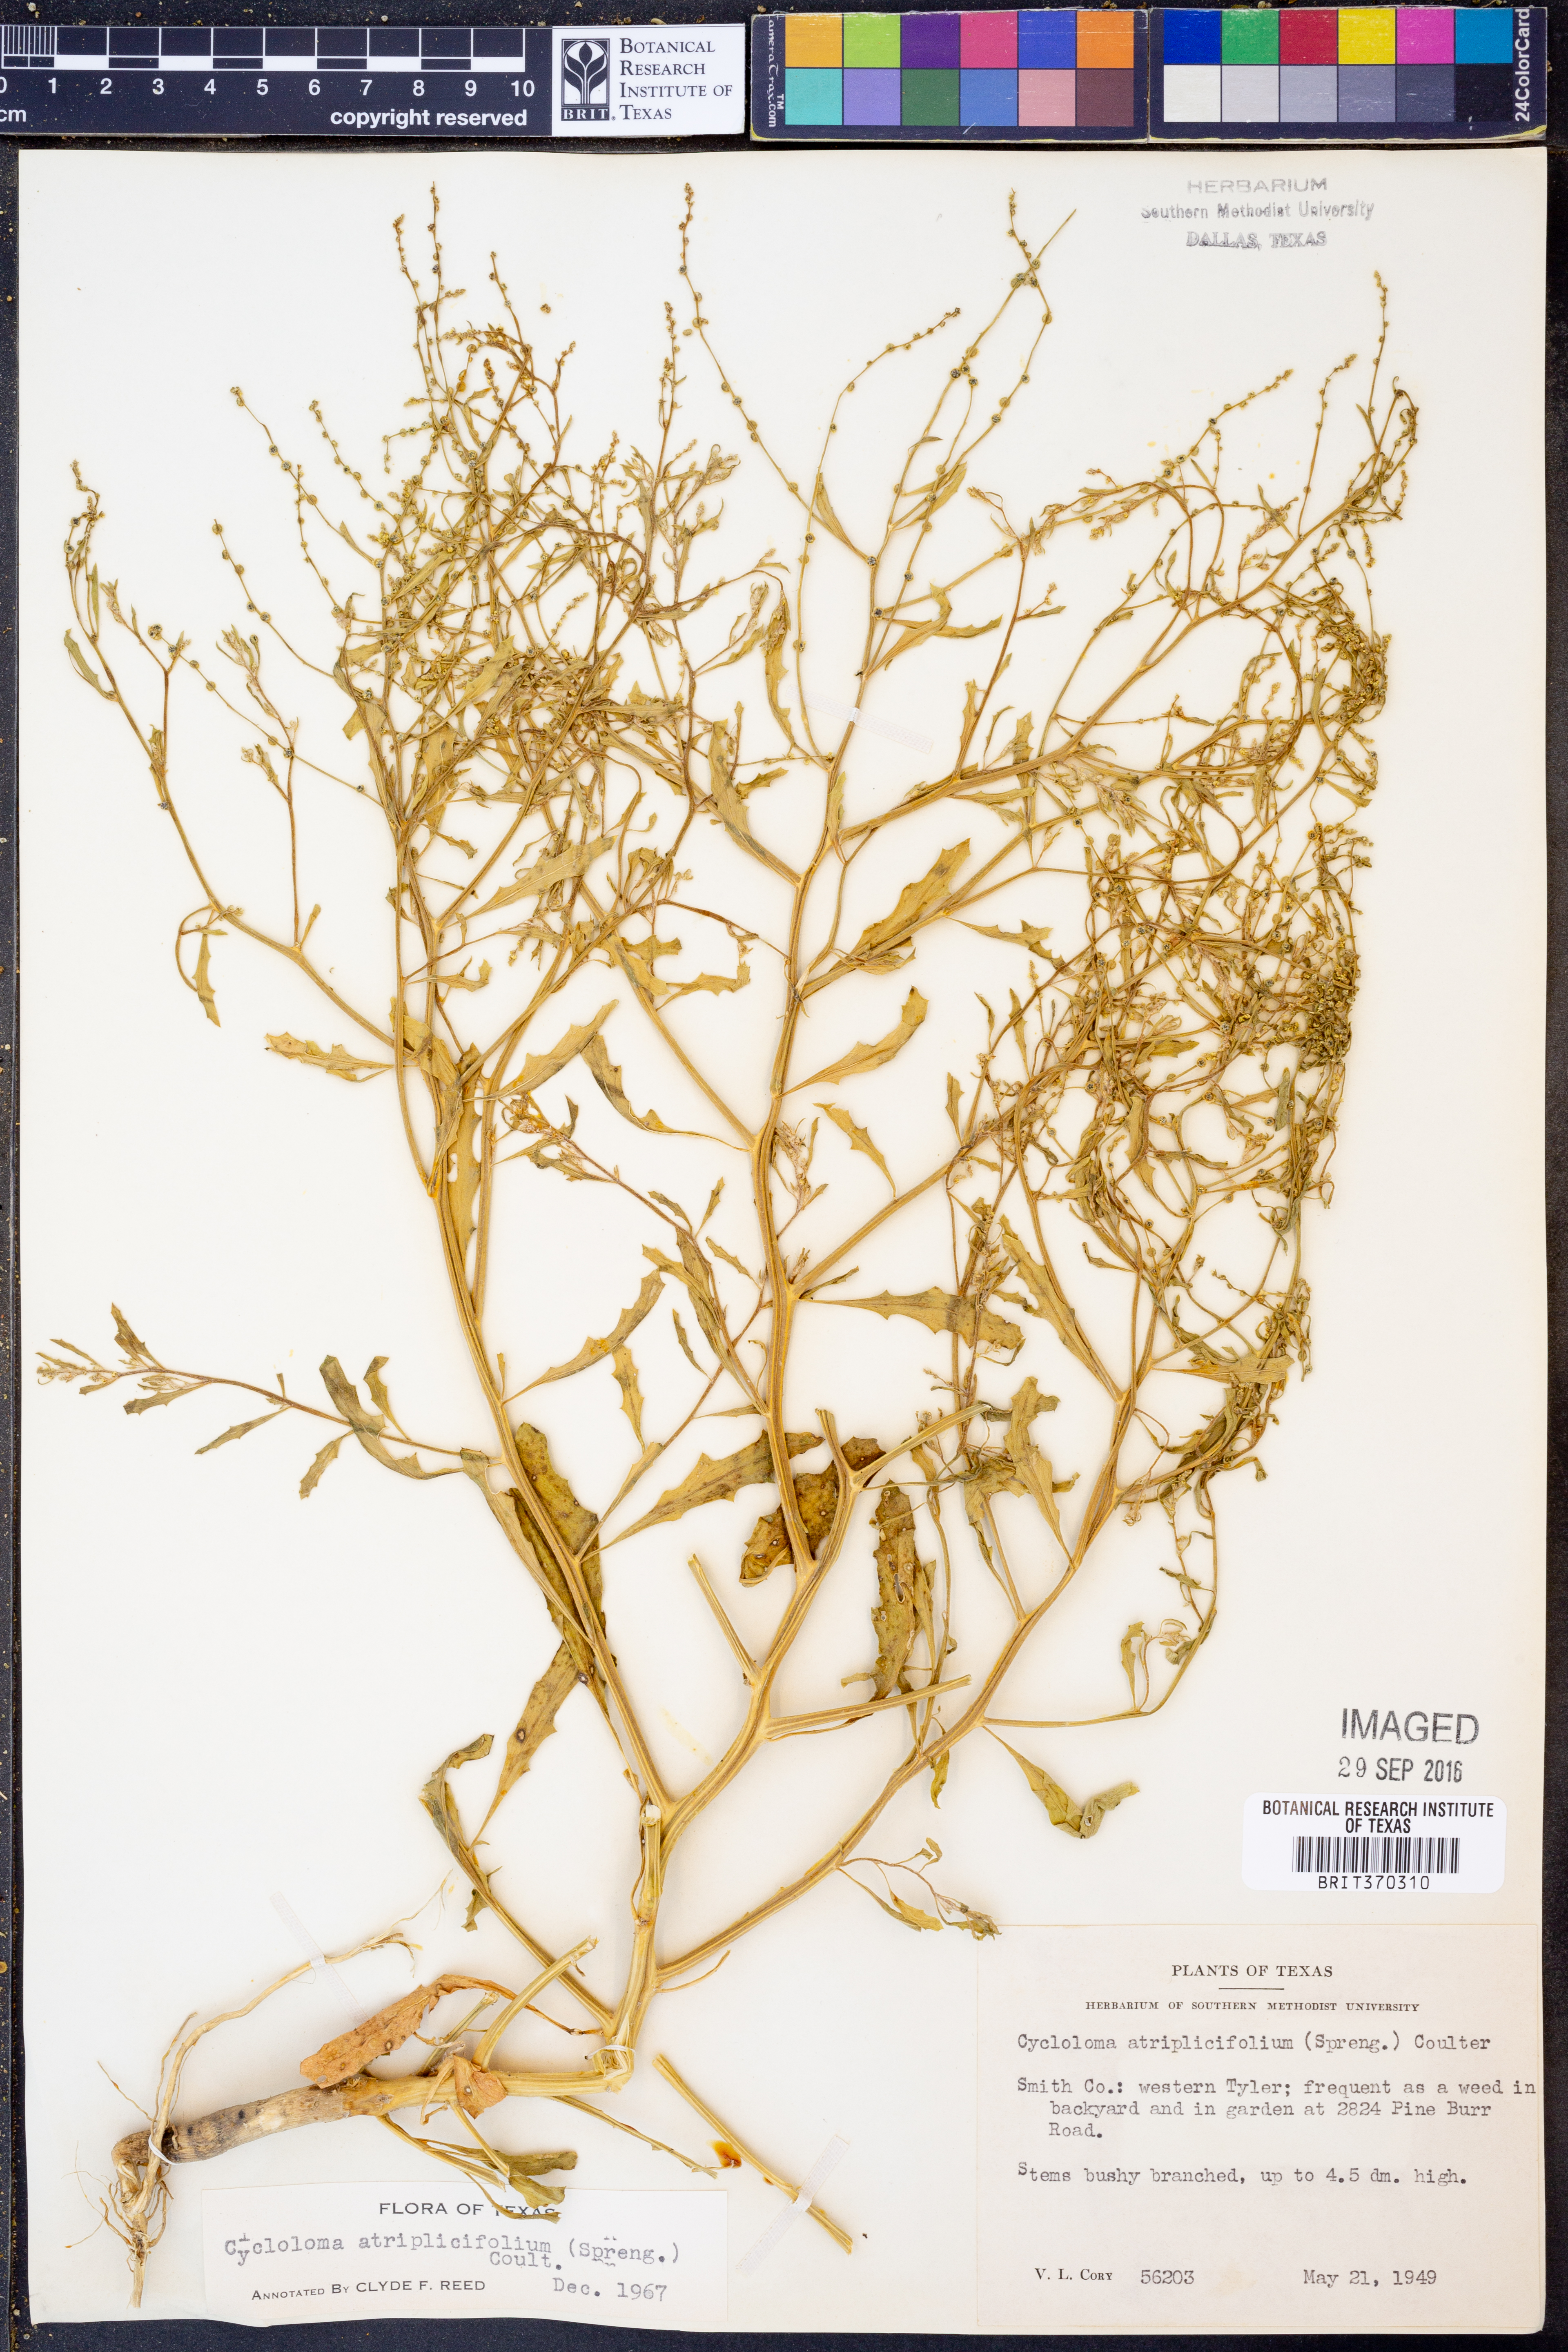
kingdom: Plantae
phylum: Tracheophyta
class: Magnoliopsida
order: Caryophyllales
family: Amaranthaceae
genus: Dysphania
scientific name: Dysphania atriplicifolia
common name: Plains tumbleweed
